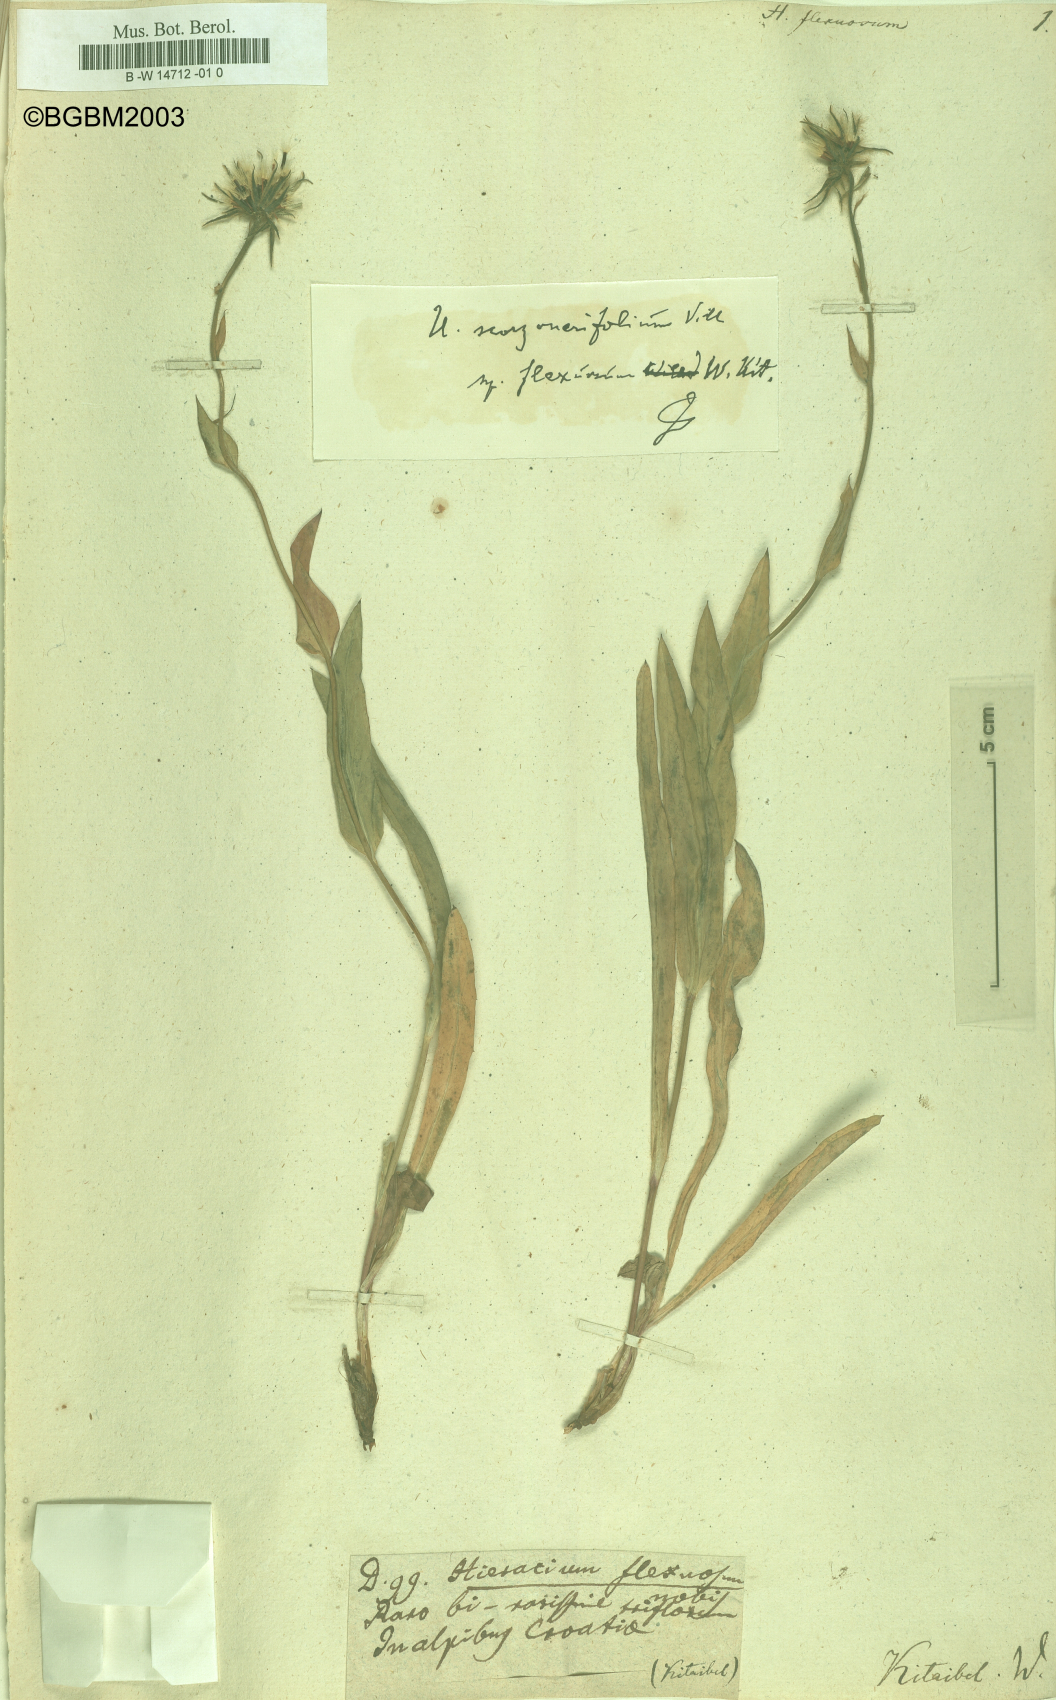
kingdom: Plantae
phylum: Tracheophyta
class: Magnoliopsida
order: Asterales
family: Asteraceae
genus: Hieracium
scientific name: Hieracium scorzonerifolium
